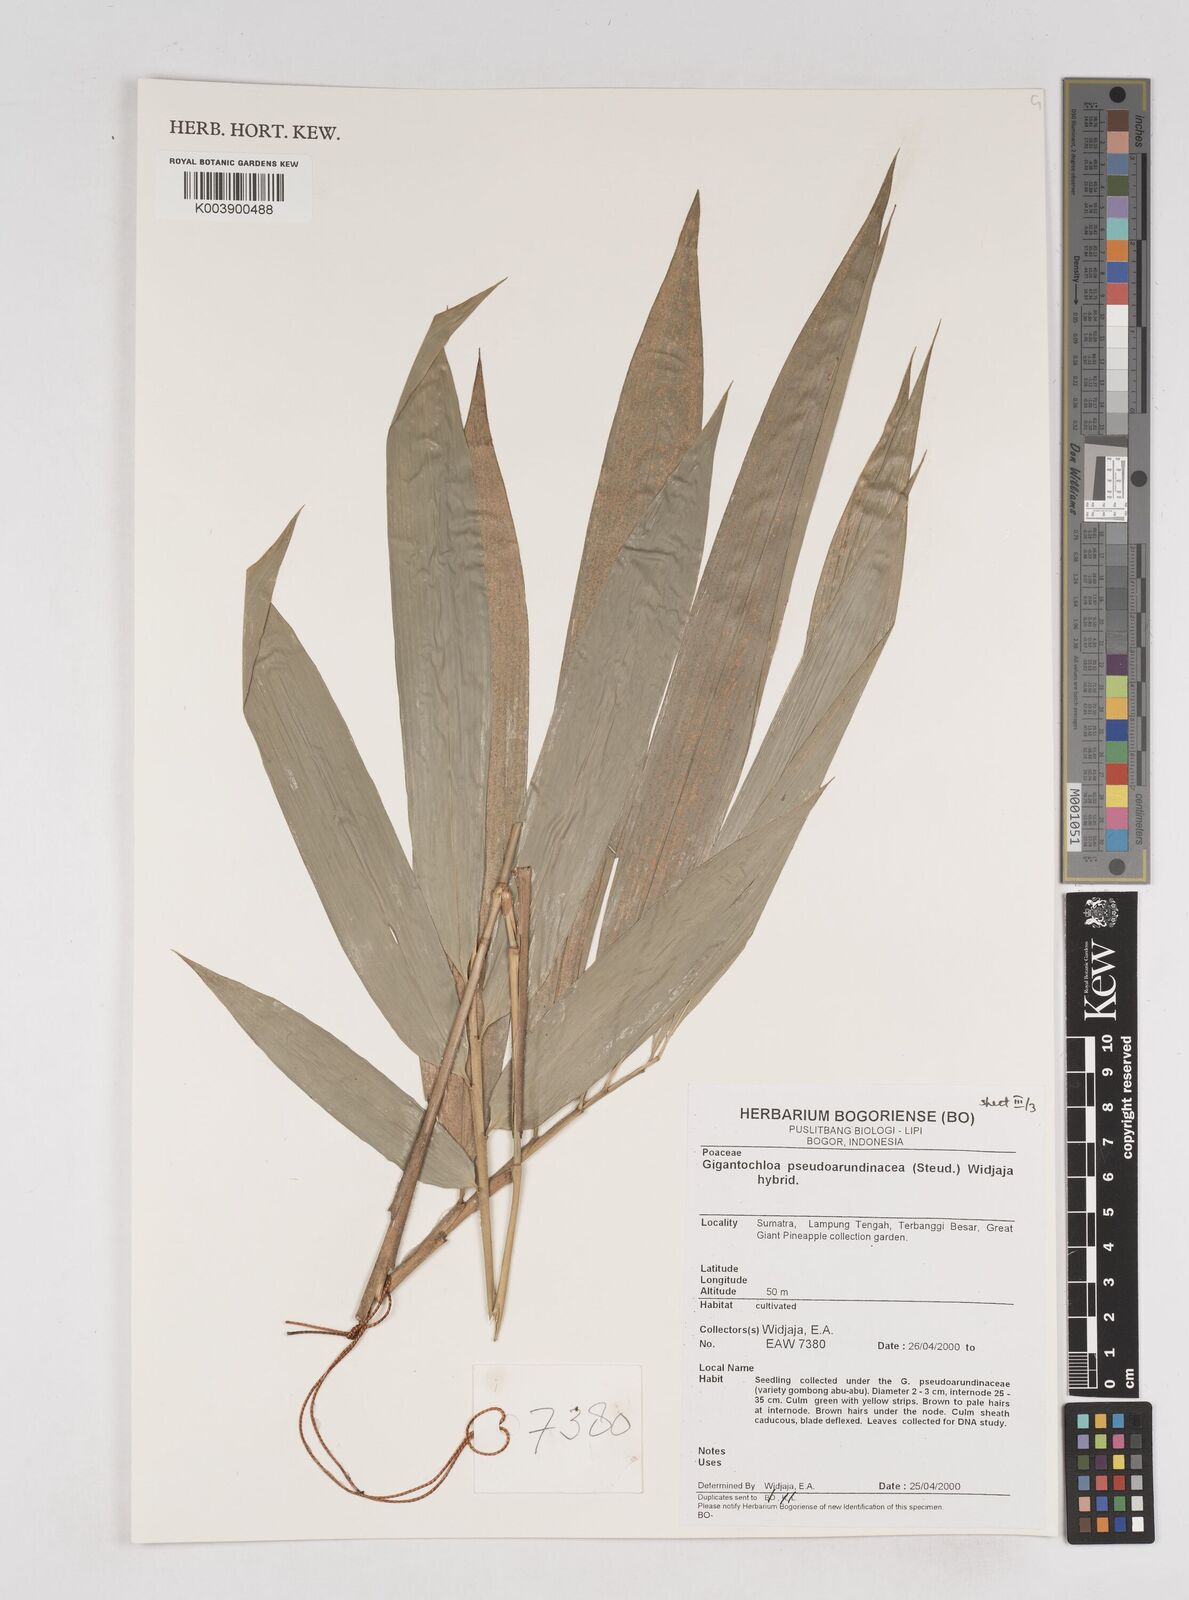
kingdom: Plantae
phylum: Tracheophyta
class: Liliopsida
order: Poales
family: Poaceae
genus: Gigantochloa
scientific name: Gigantochloa verticillata
